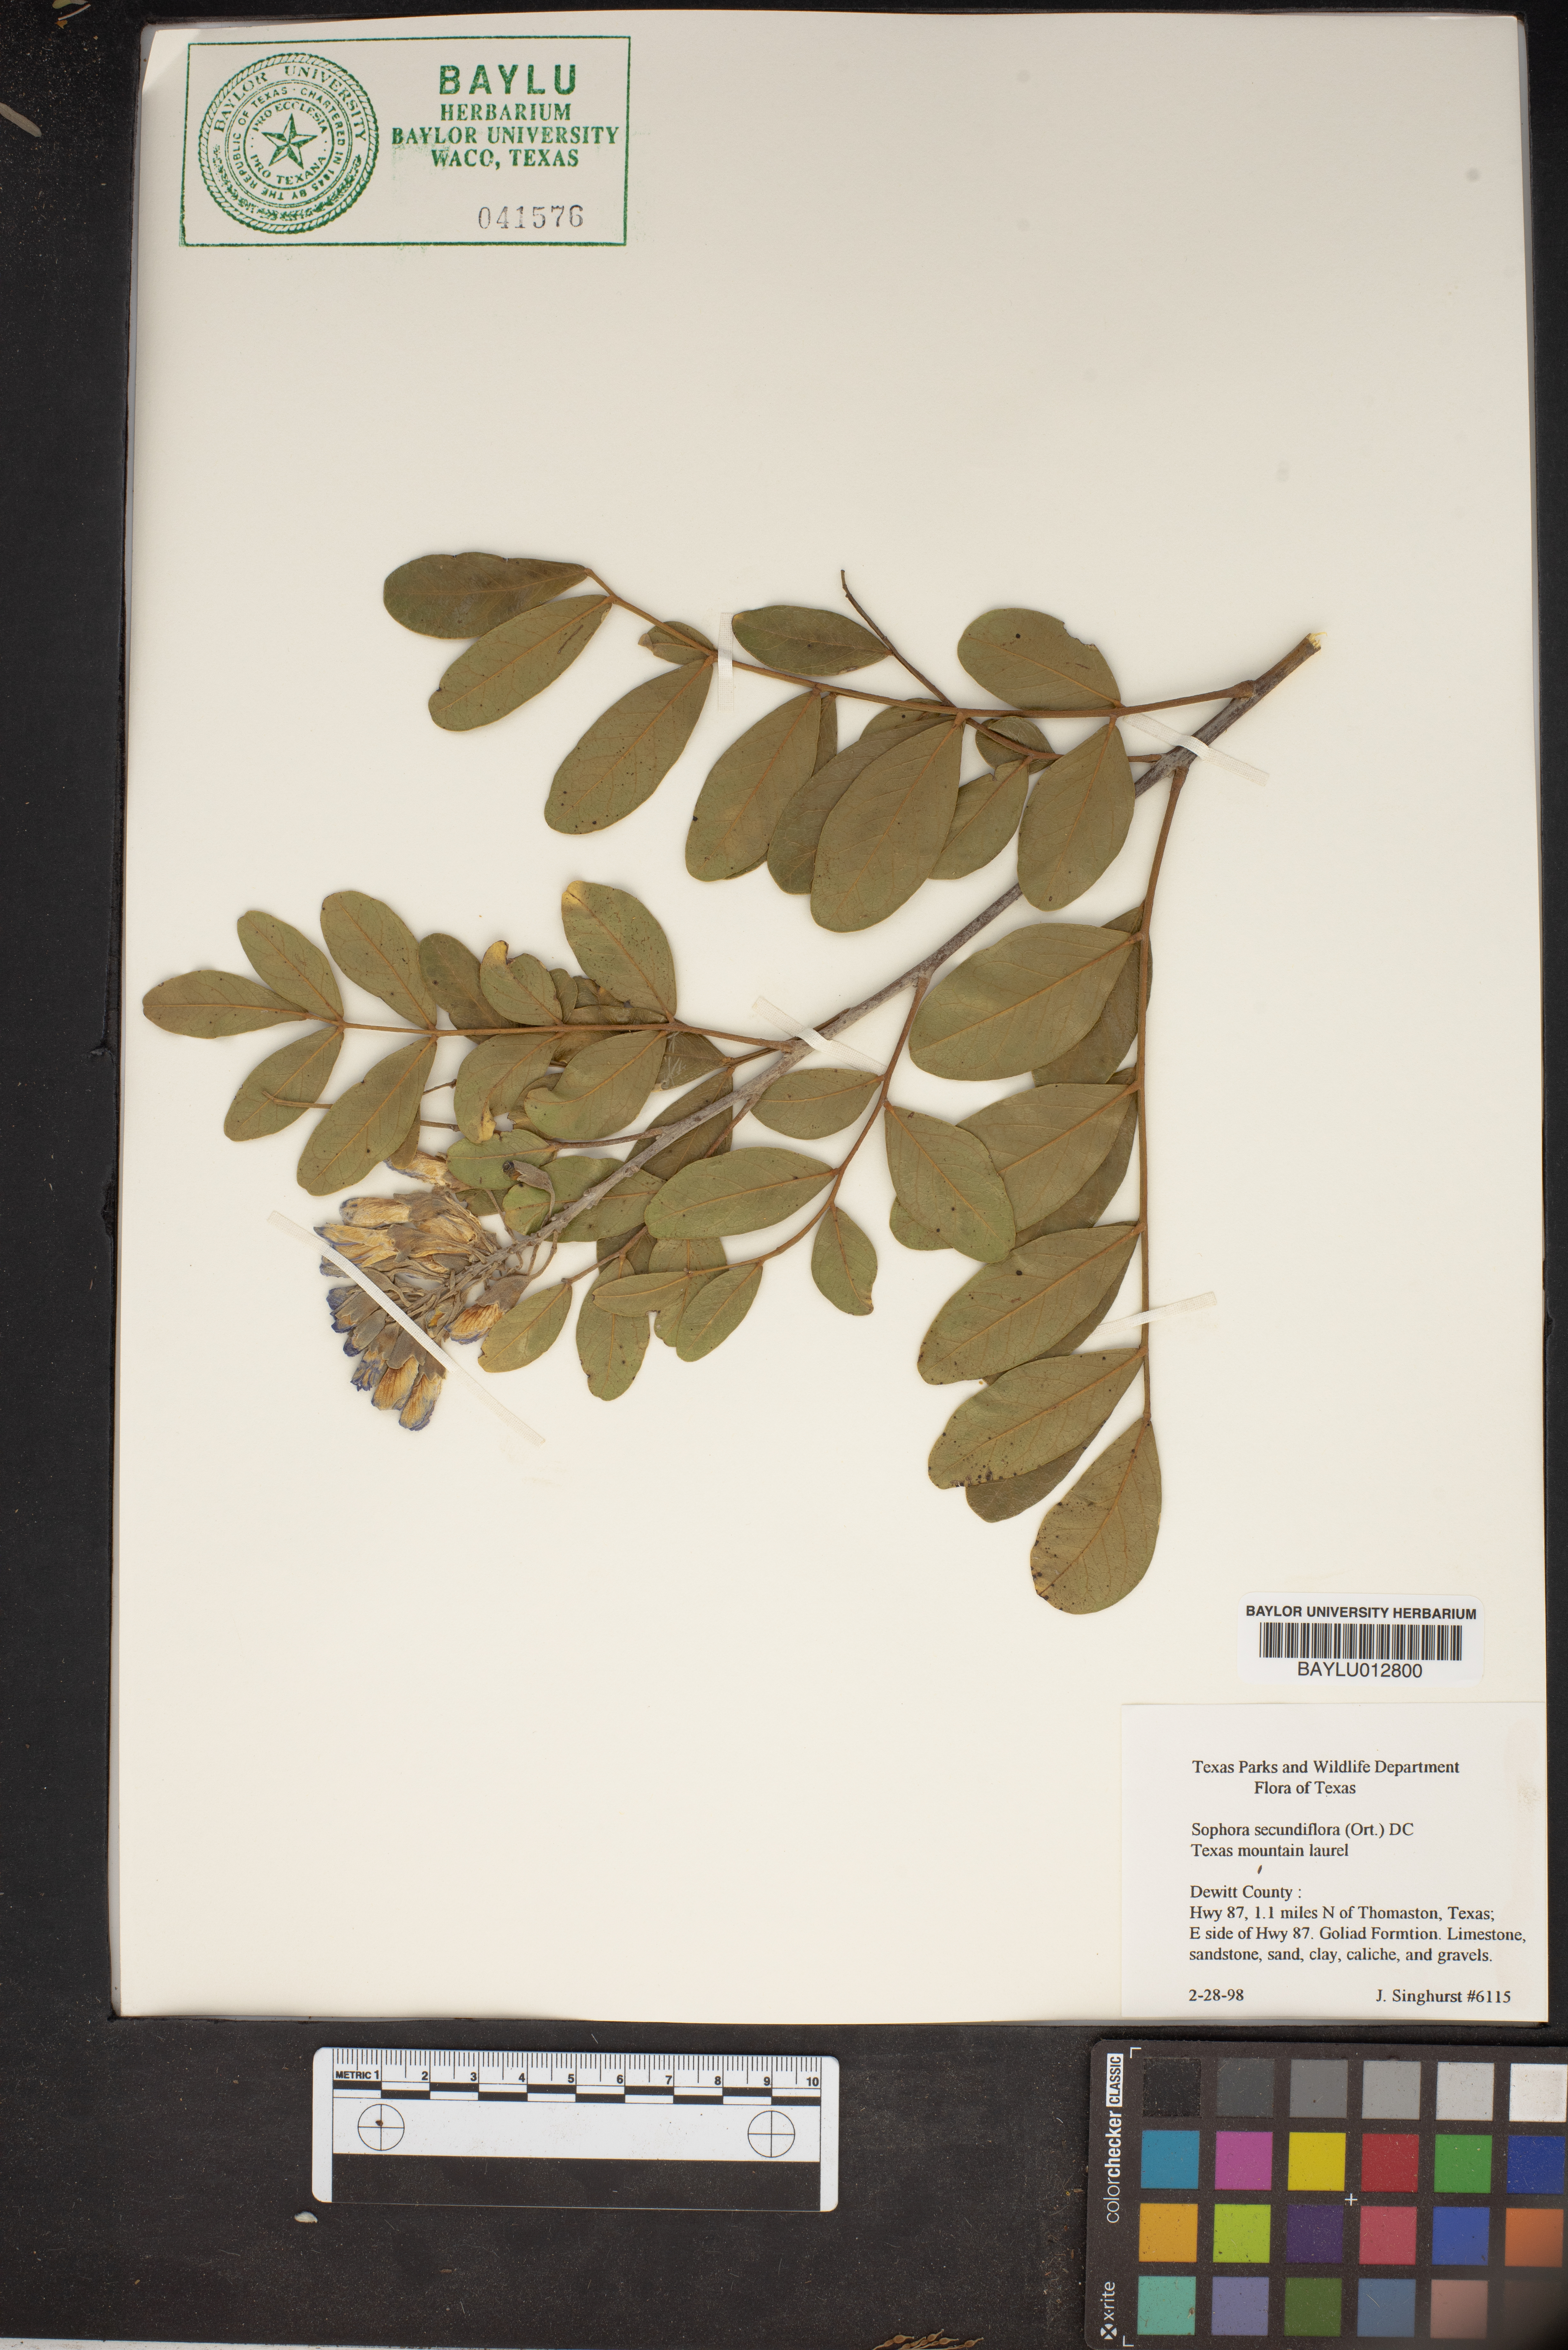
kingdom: Plantae
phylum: Tracheophyta
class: Magnoliopsida
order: Fabales
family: Fabaceae
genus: Dermatophyllum
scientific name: Dermatophyllum secundiflorum
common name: Texas-mountain-laurel
